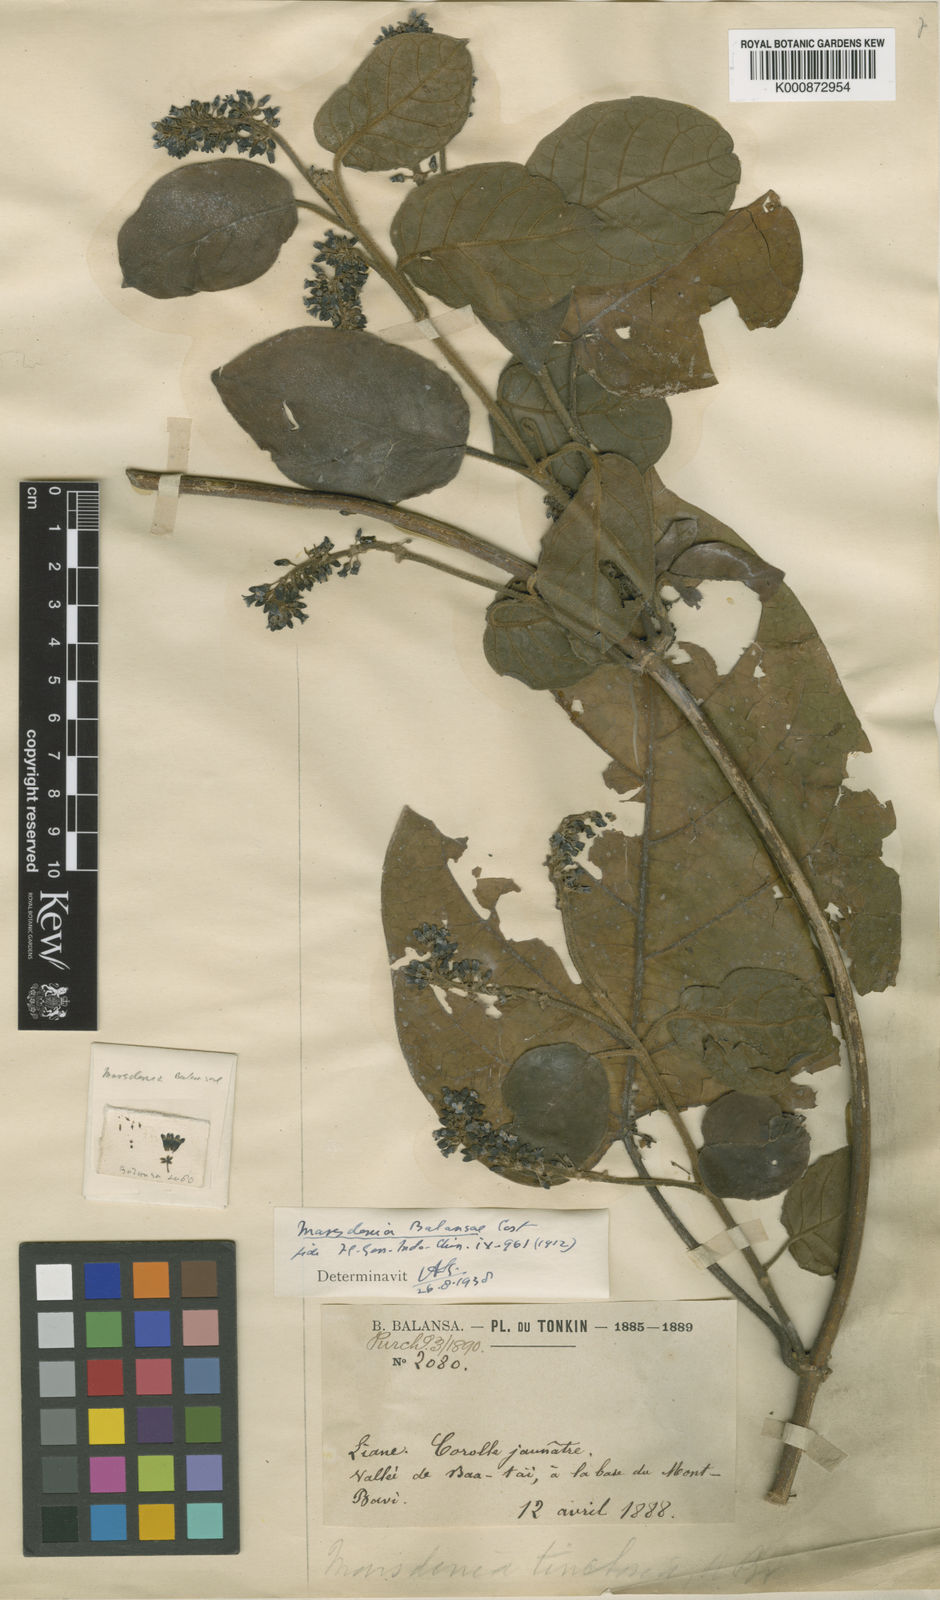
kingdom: Plantae
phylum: Tracheophyta
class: Magnoliopsida
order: Gentianales
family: Apocynaceae
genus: Marsdenia
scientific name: Marsdenia schneideri
